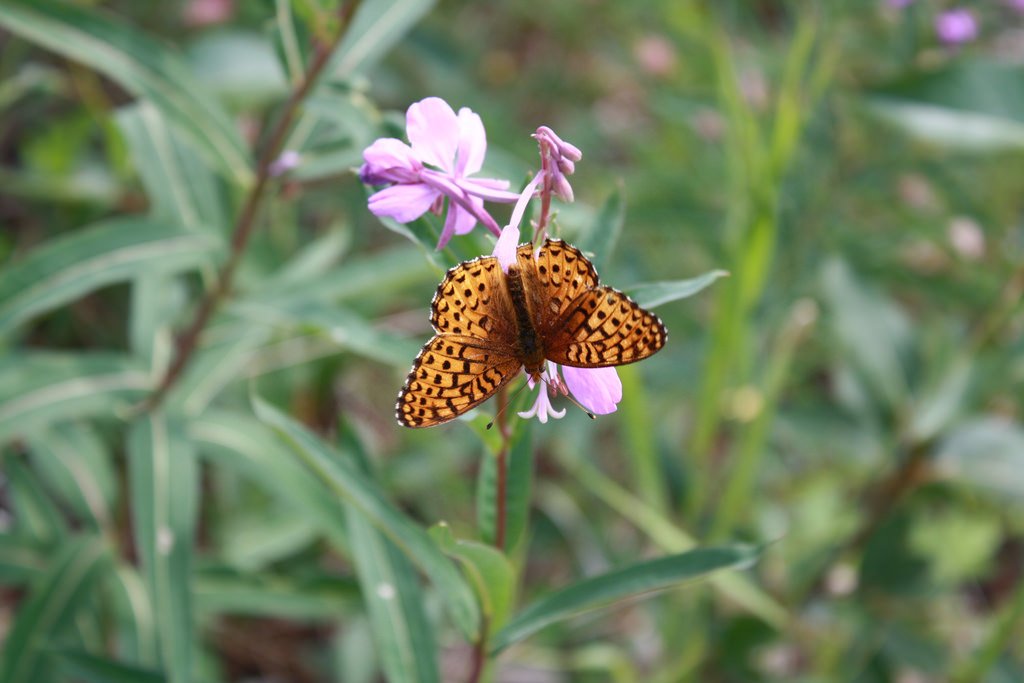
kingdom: Animalia
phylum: Arthropoda
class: Insecta
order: Lepidoptera
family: Nymphalidae
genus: Speyeria
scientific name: Speyeria aphrodite
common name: Aphrodite Fritillary
